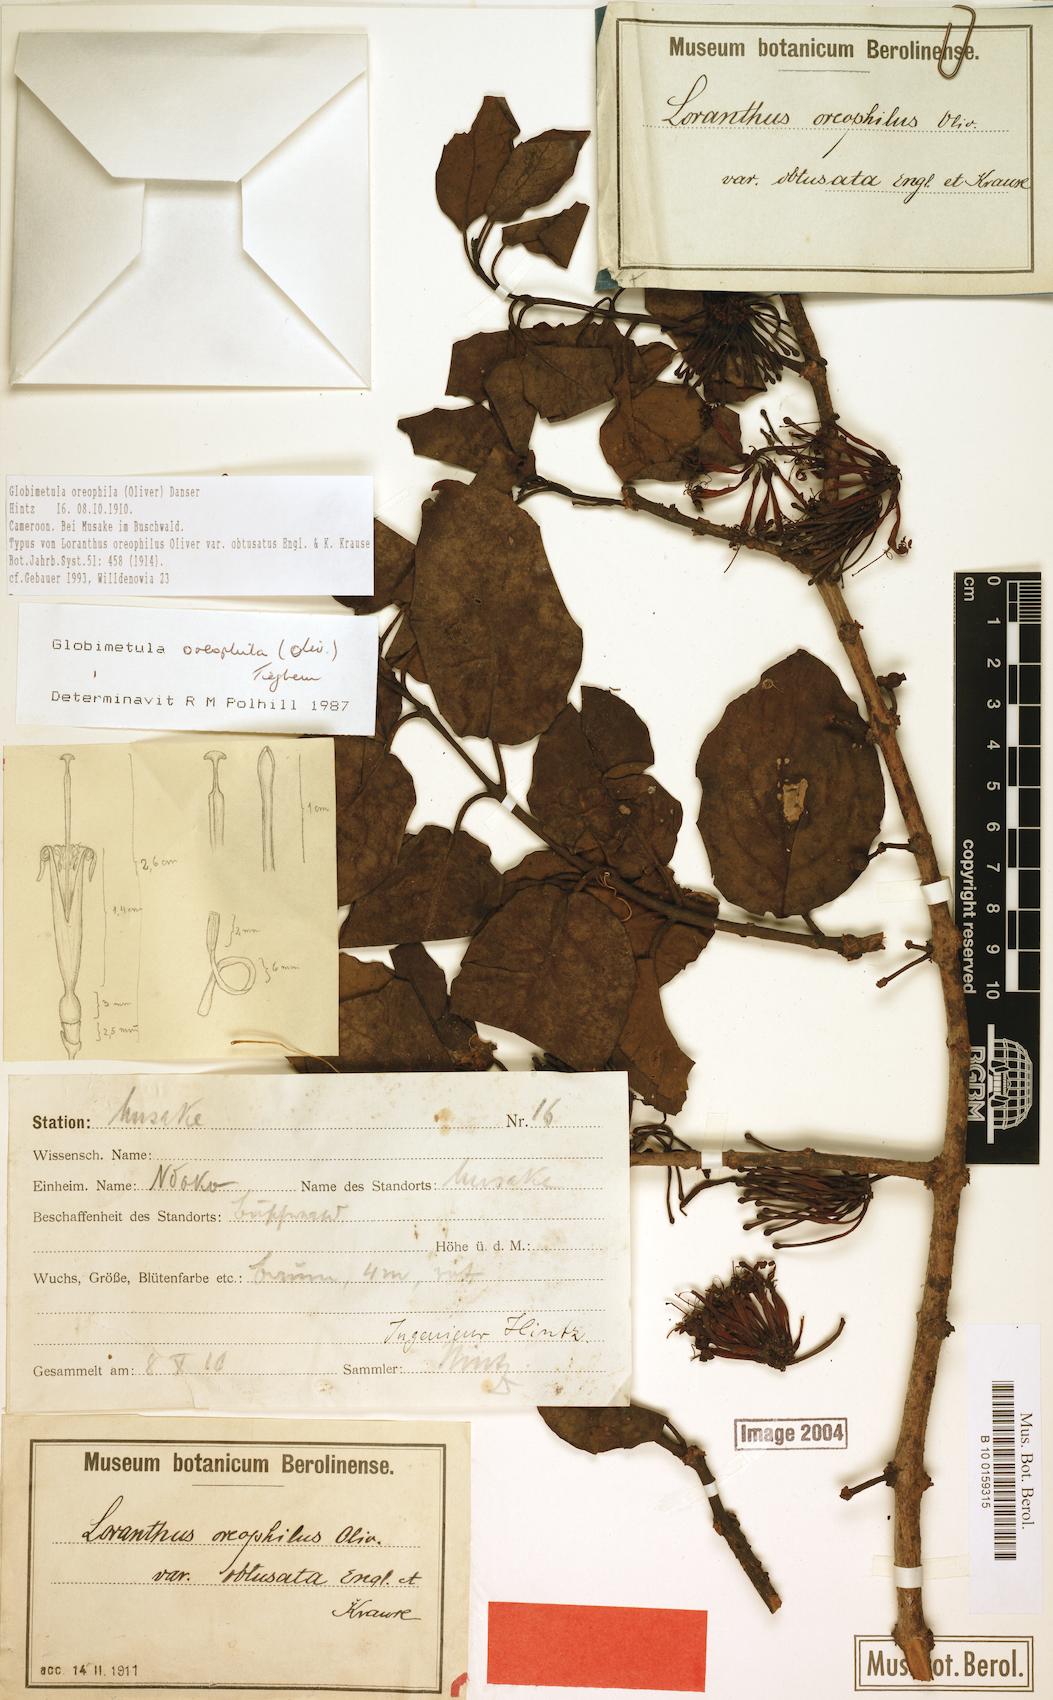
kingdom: Plantae
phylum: Tracheophyta
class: Magnoliopsida
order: Santalales
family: Loranthaceae
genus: Globimetula
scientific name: Globimetula oreophila
